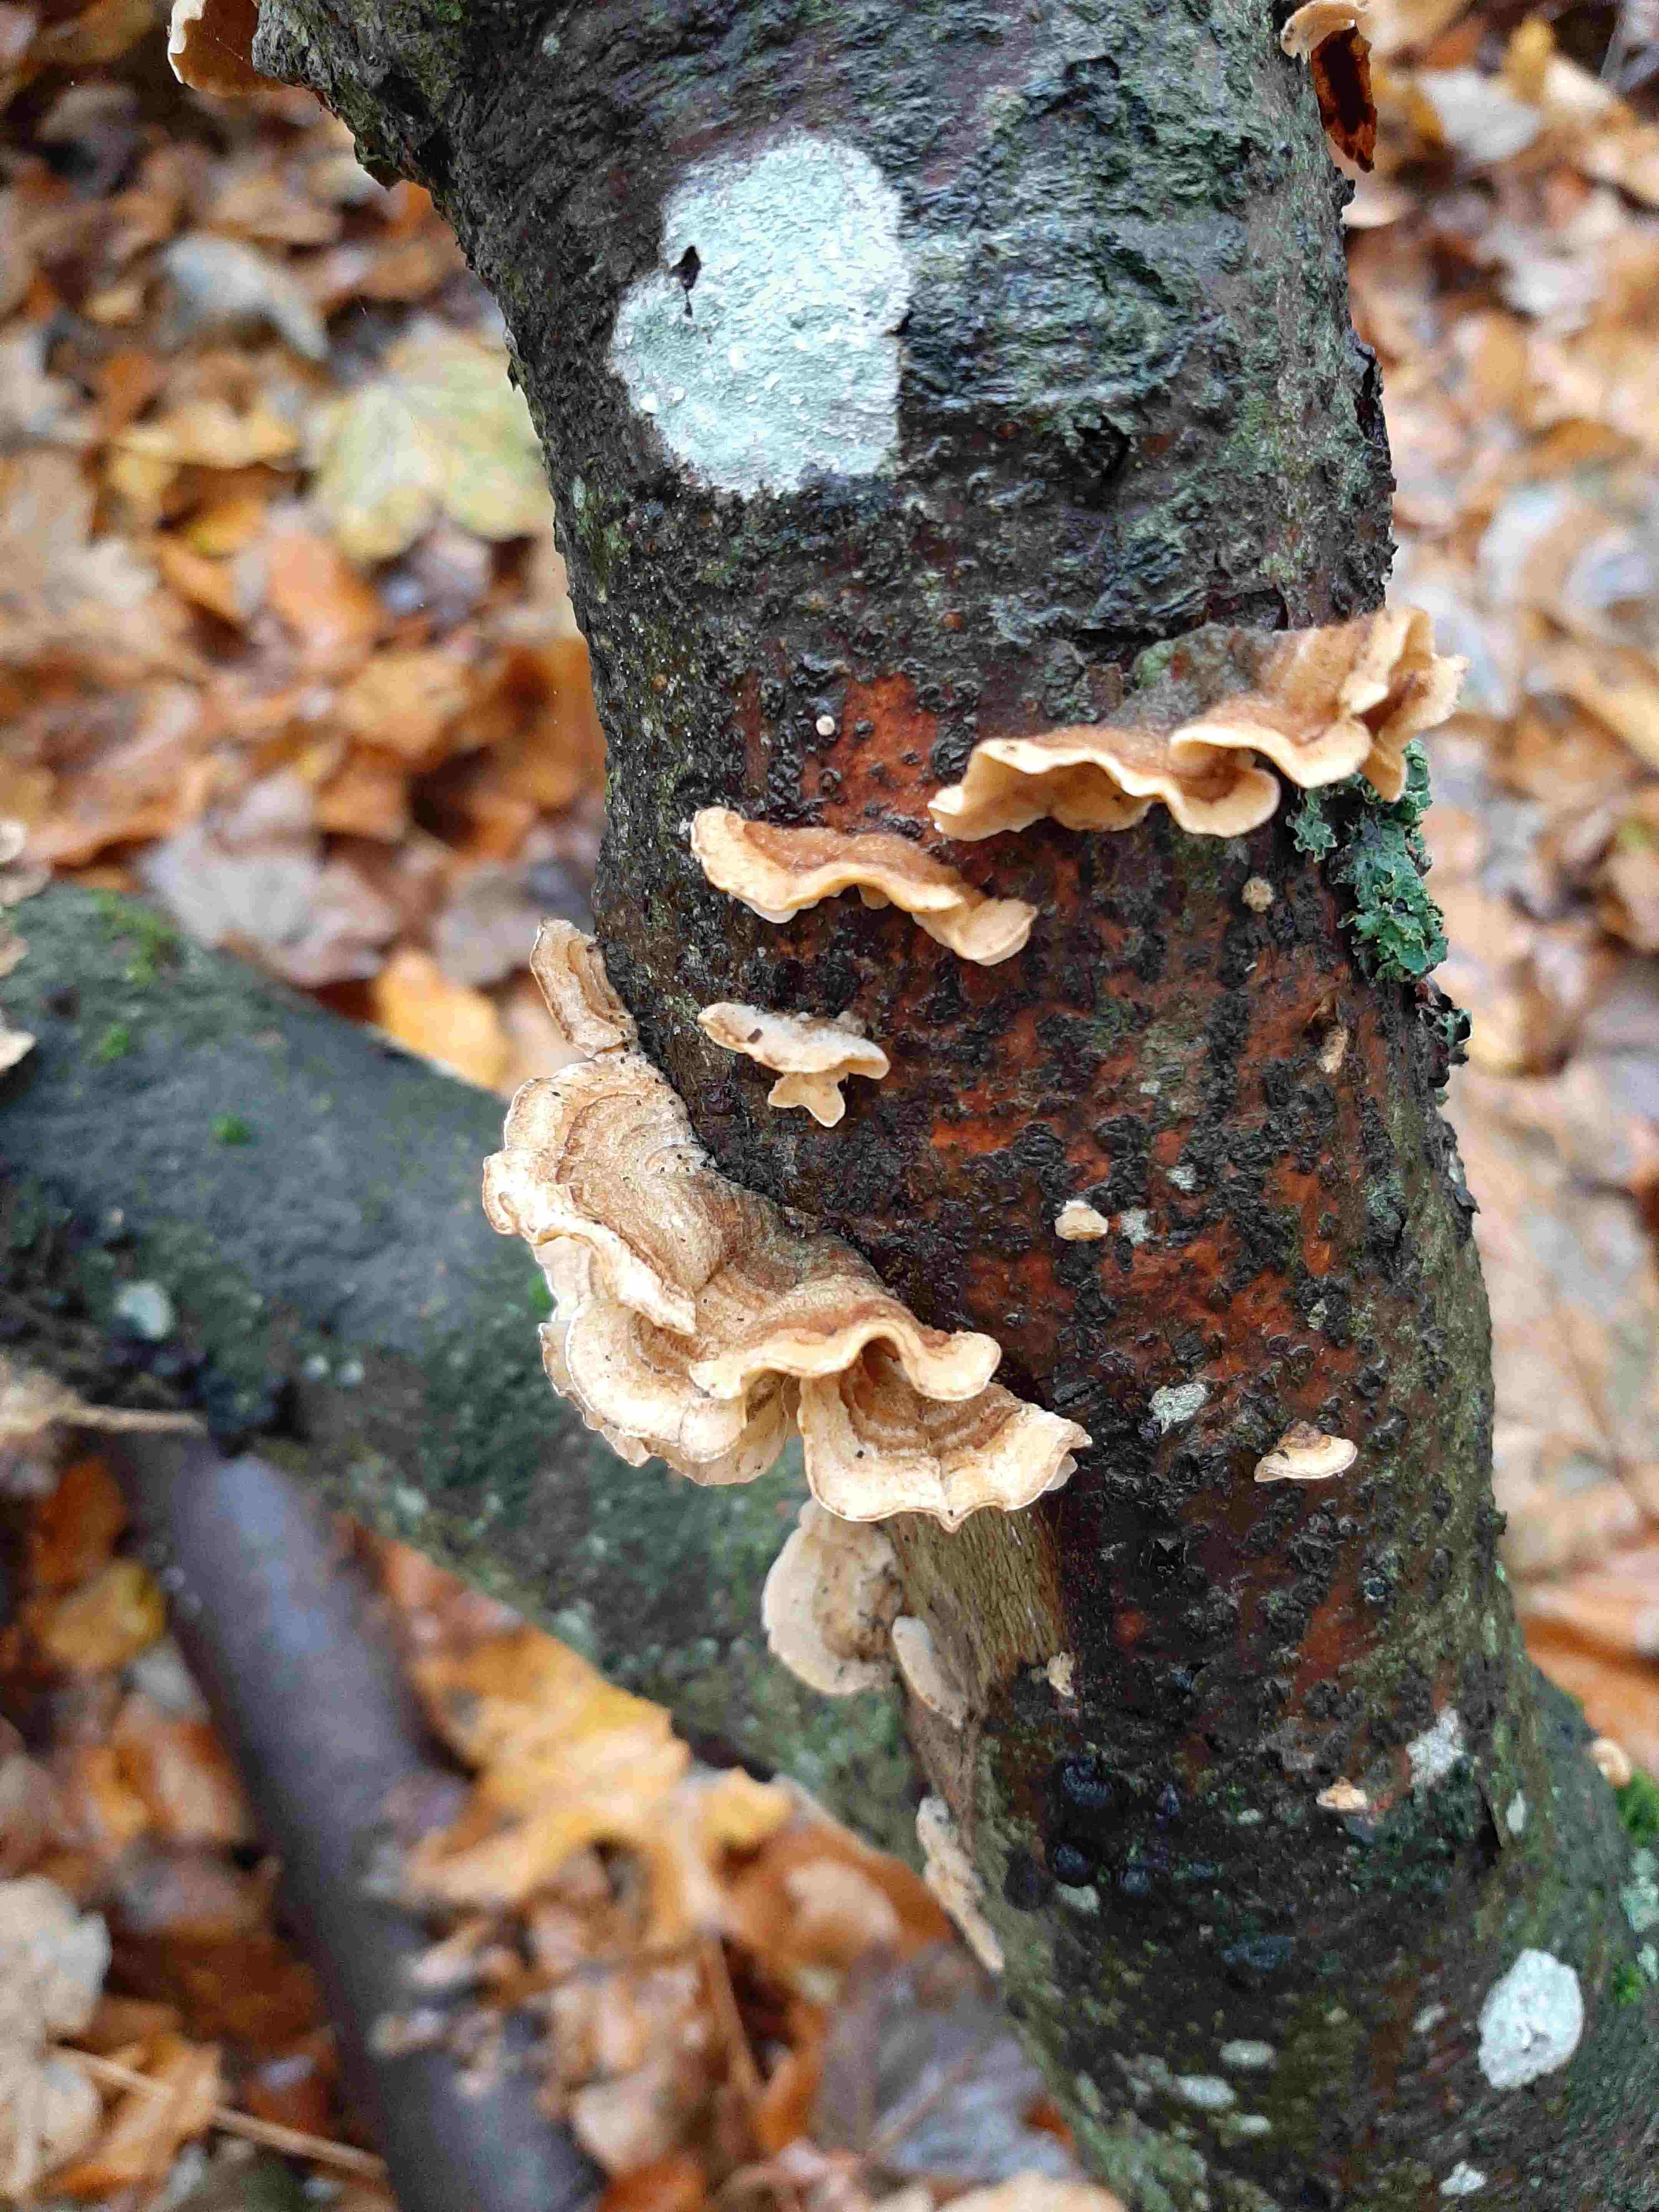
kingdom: Fungi
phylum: Basidiomycota
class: Agaricomycetes
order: Russulales
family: Stereaceae
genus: Stereum
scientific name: Stereum hirsutum
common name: håret lædersvamp
